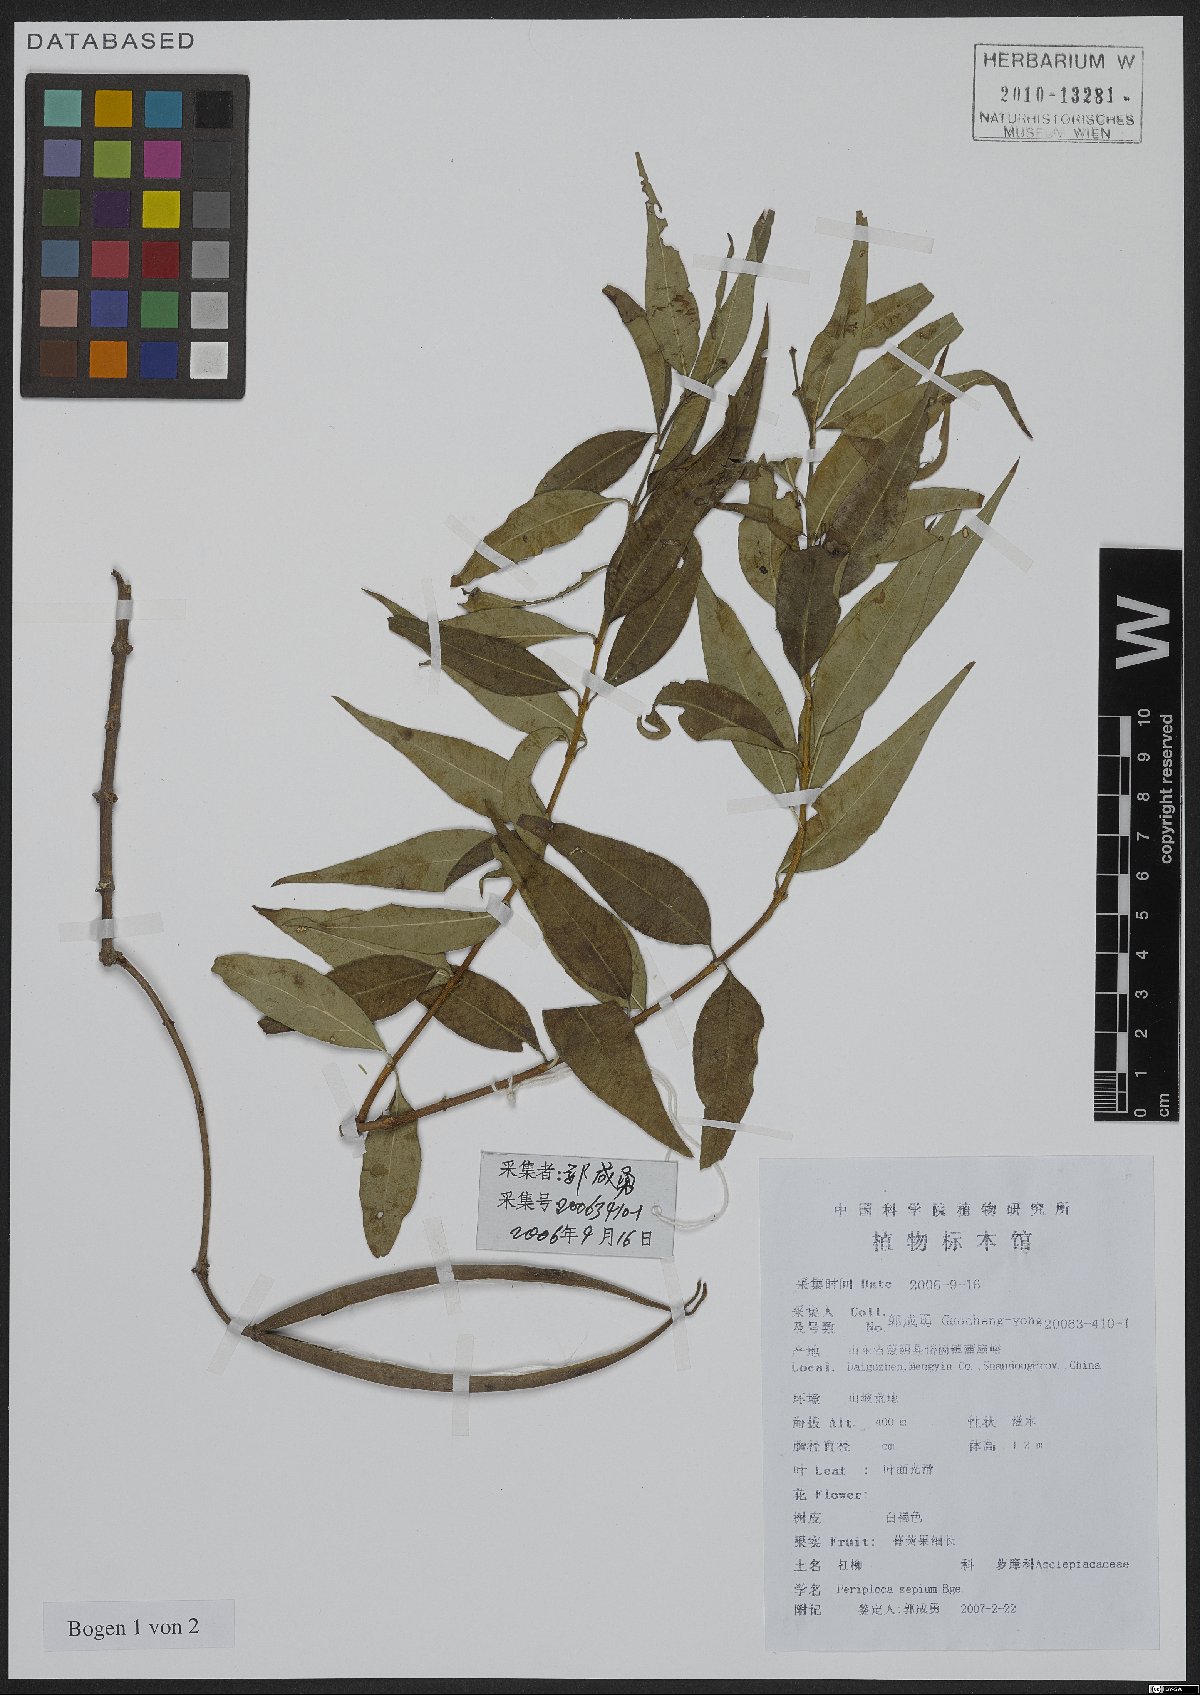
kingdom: Plantae
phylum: Tracheophyta
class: Magnoliopsida
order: Gentianales
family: Apocynaceae
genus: Periploca
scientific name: Periploca sepium
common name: Chinese silkvine
